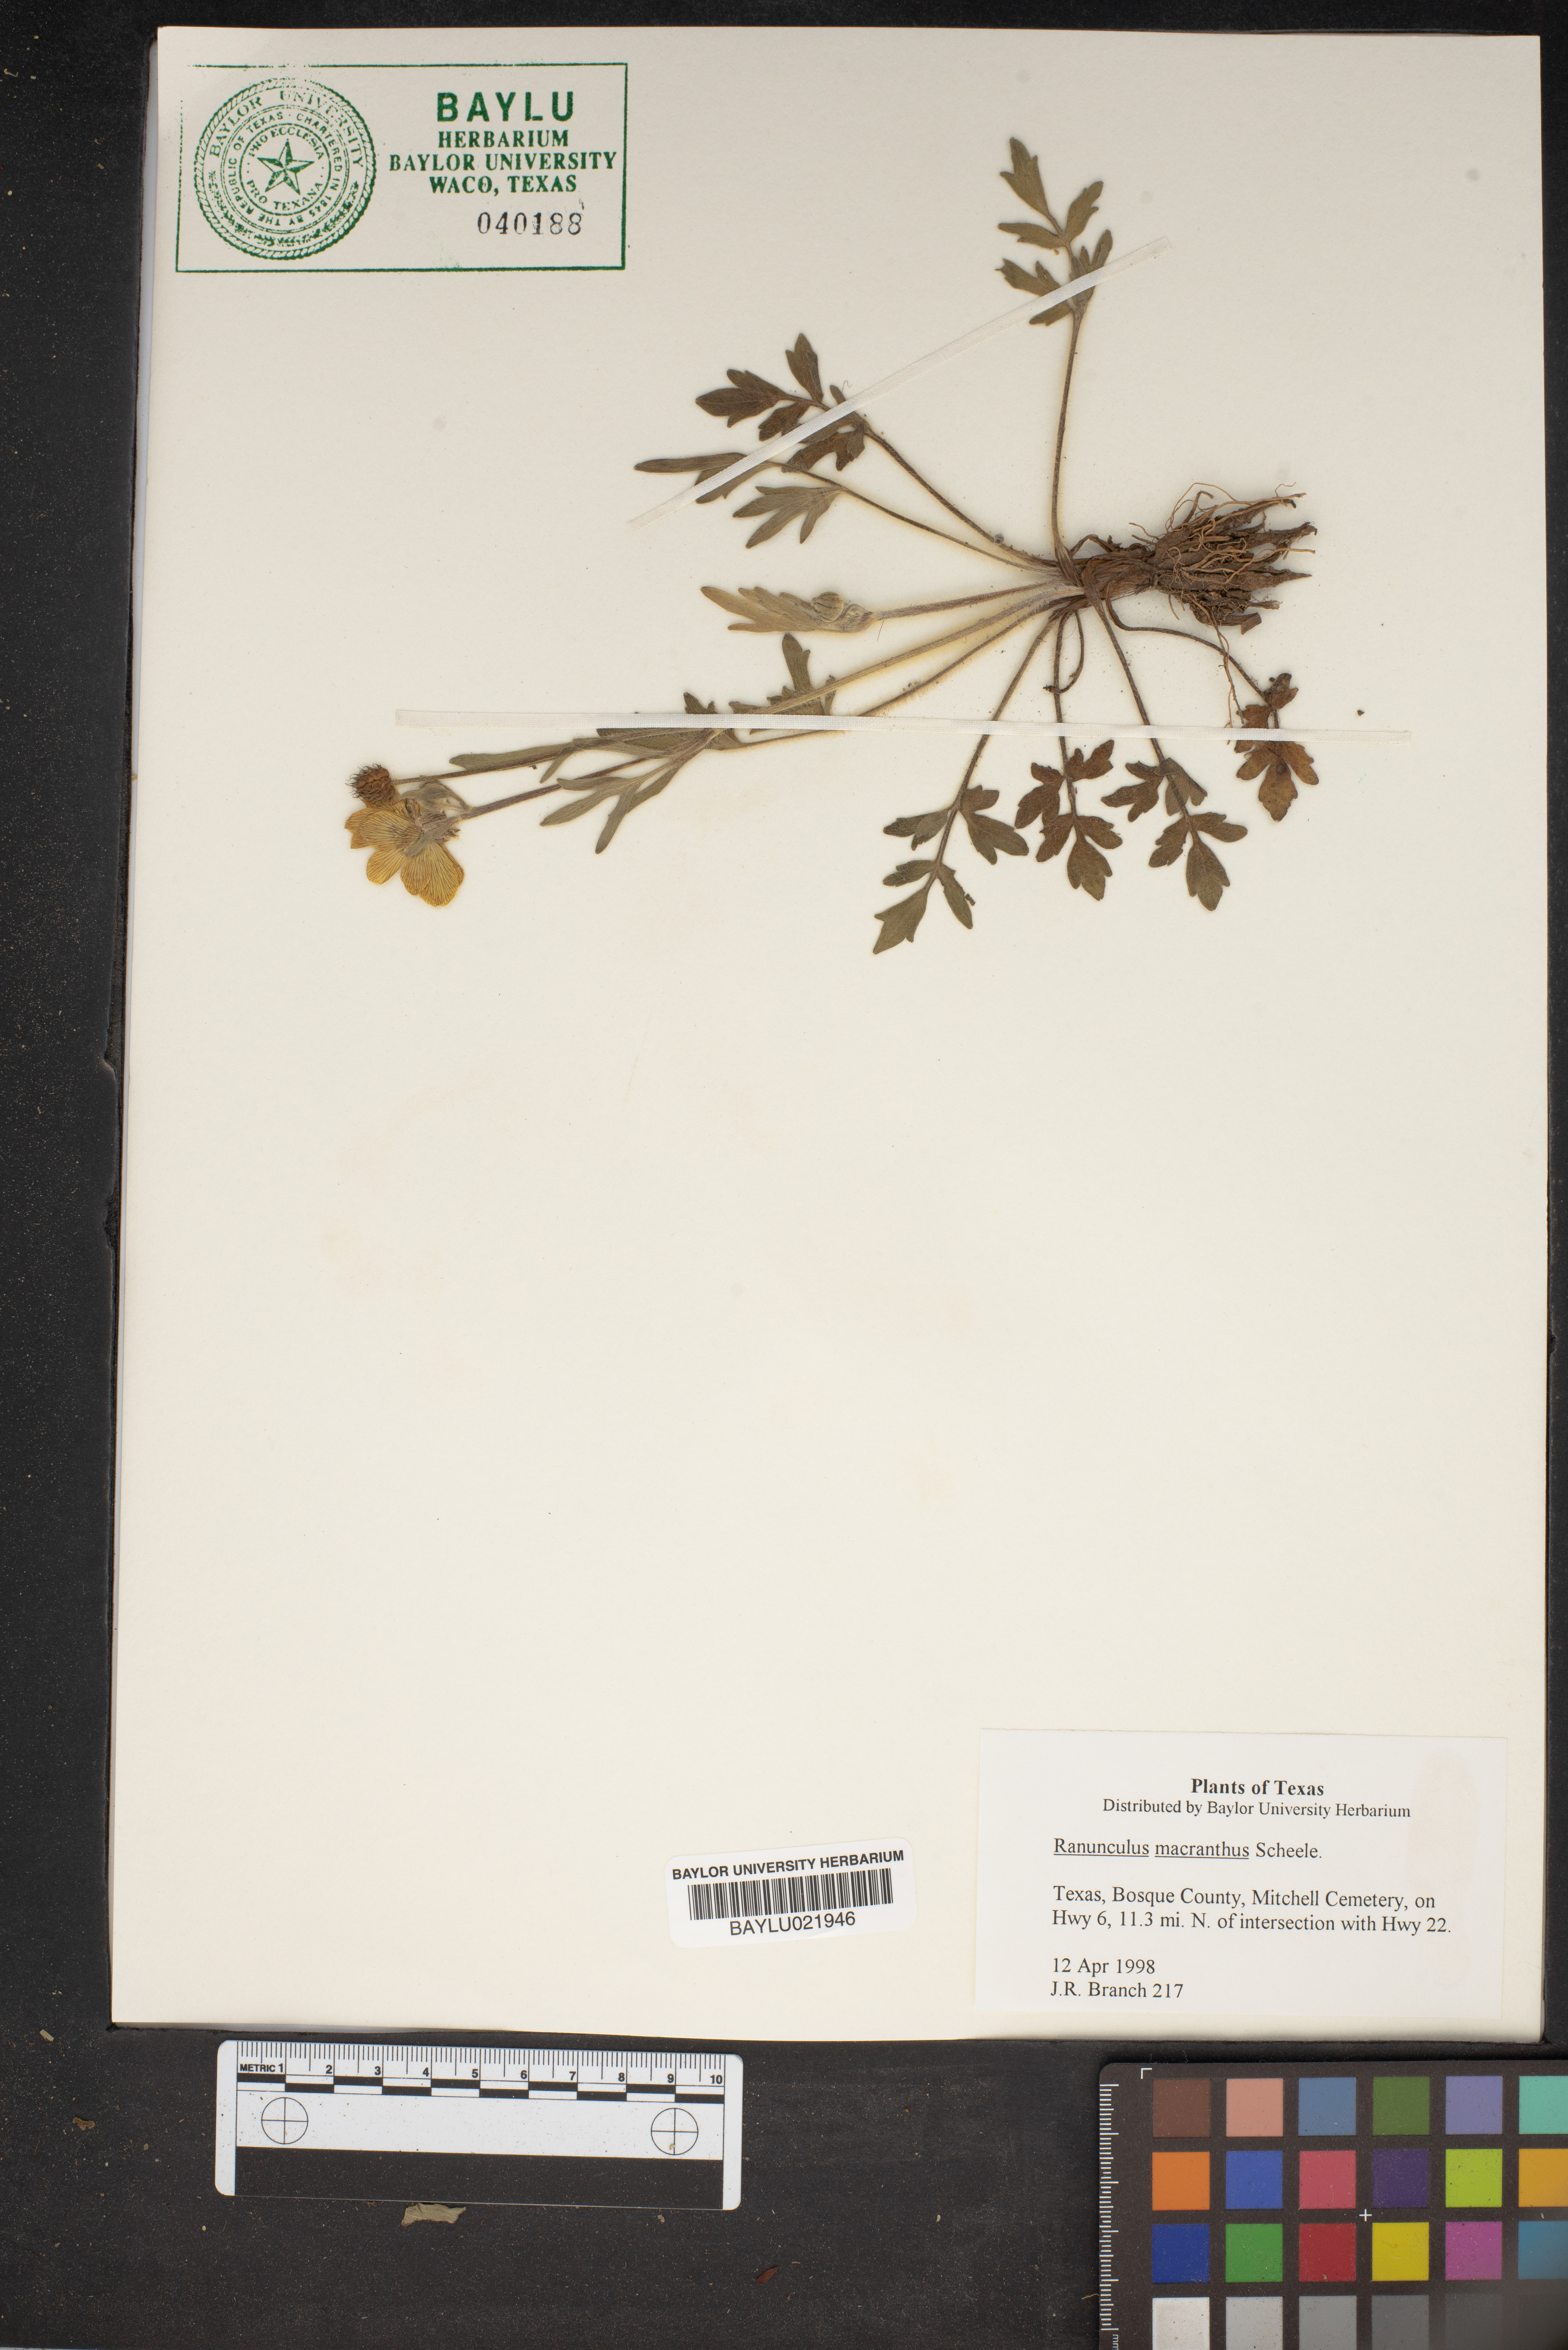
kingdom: Plantae
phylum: Tracheophyta
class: Magnoliopsida
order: Ranunculales
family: Ranunculaceae
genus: Ranunculus
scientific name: Ranunculus macranthus
